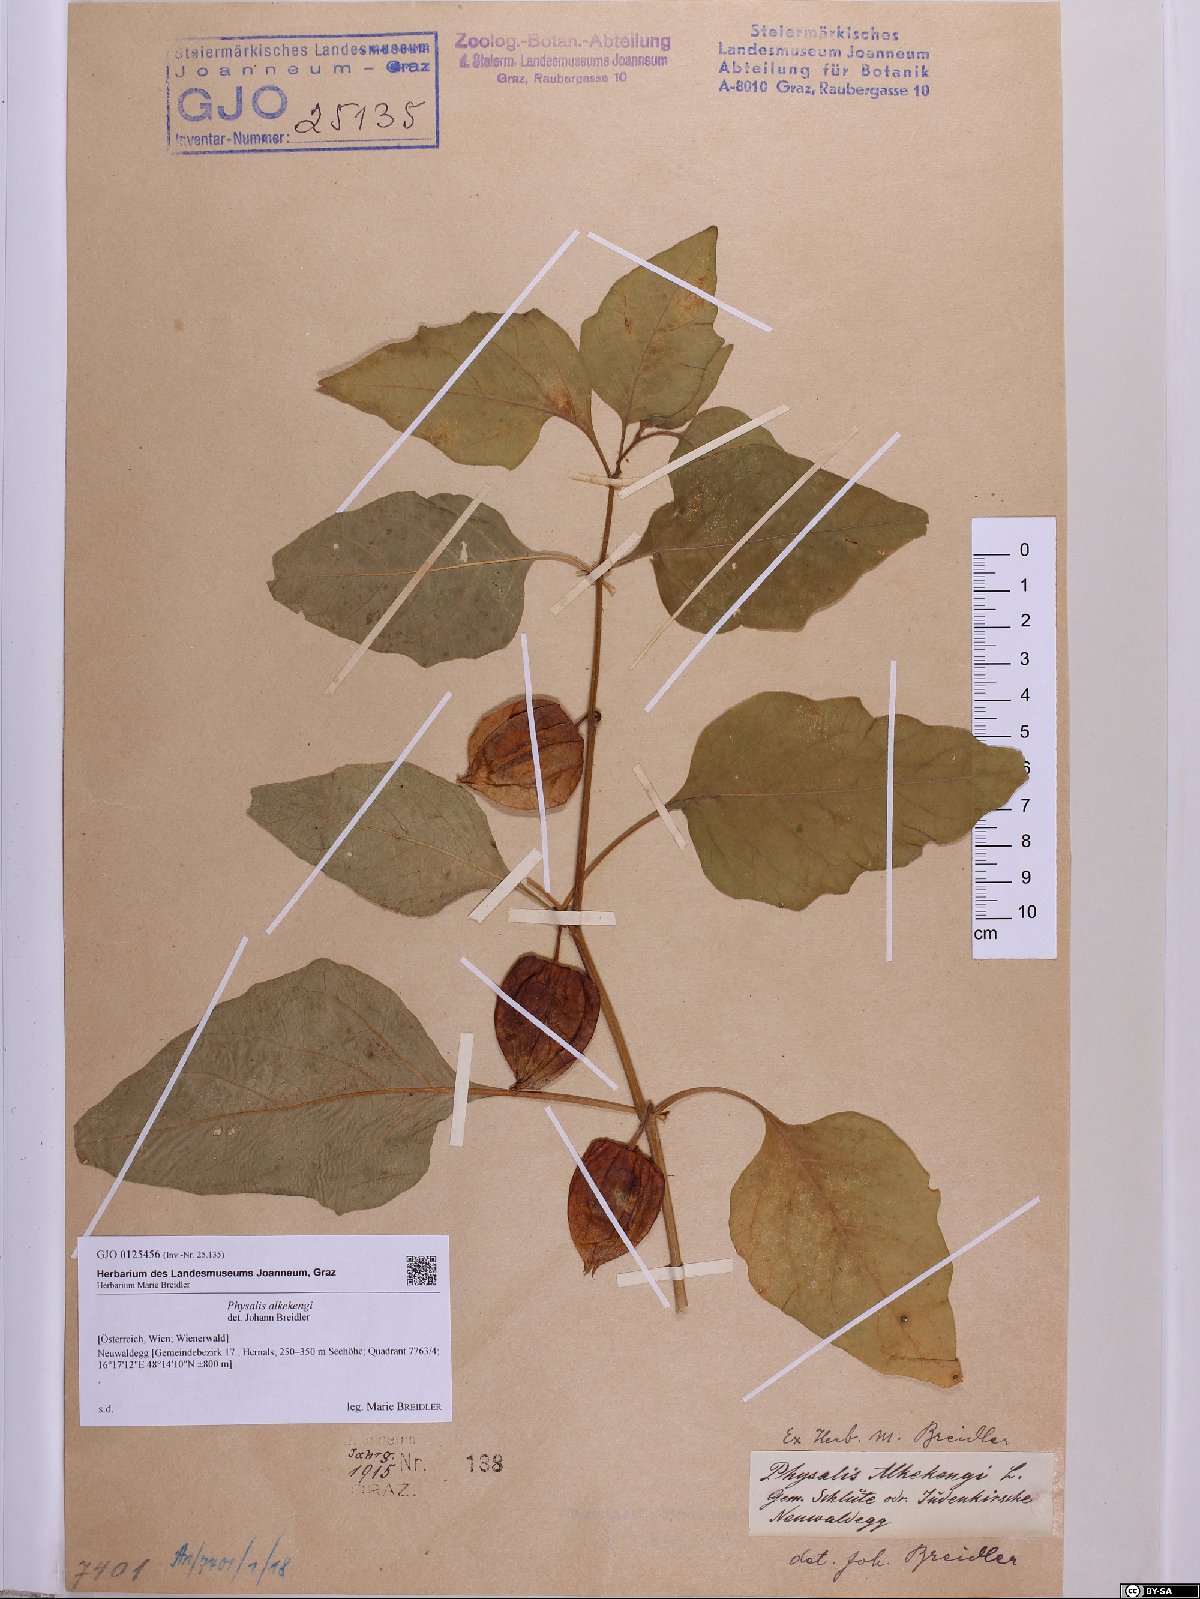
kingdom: Plantae
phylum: Tracheophyta
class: Magnoliopsida
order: Solanales
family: Solanaceae
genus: Alkekengi
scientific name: Alkekengi officinarum
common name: Japanese-lantern
